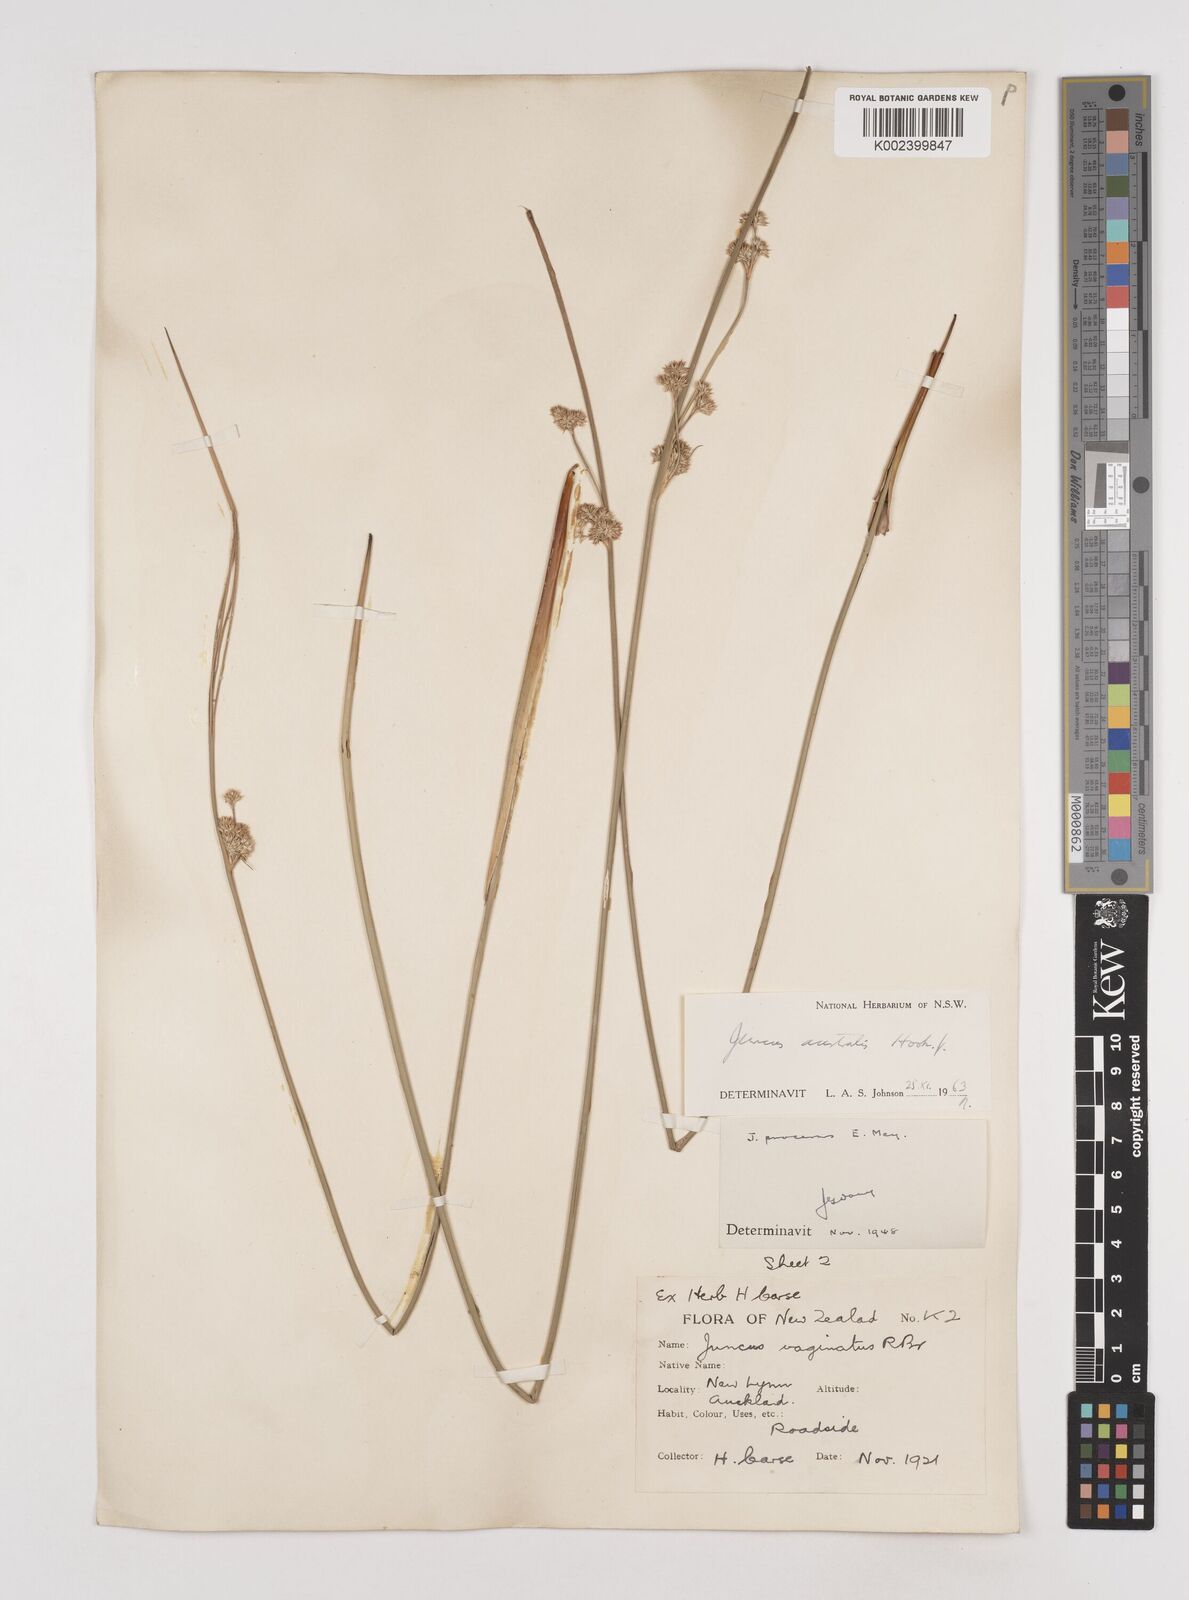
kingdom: Plantae
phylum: Tracheophyta
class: Liliopsida
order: Poales
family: Juncaceae
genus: Juncus
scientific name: Juncus australis
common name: Austral rush
